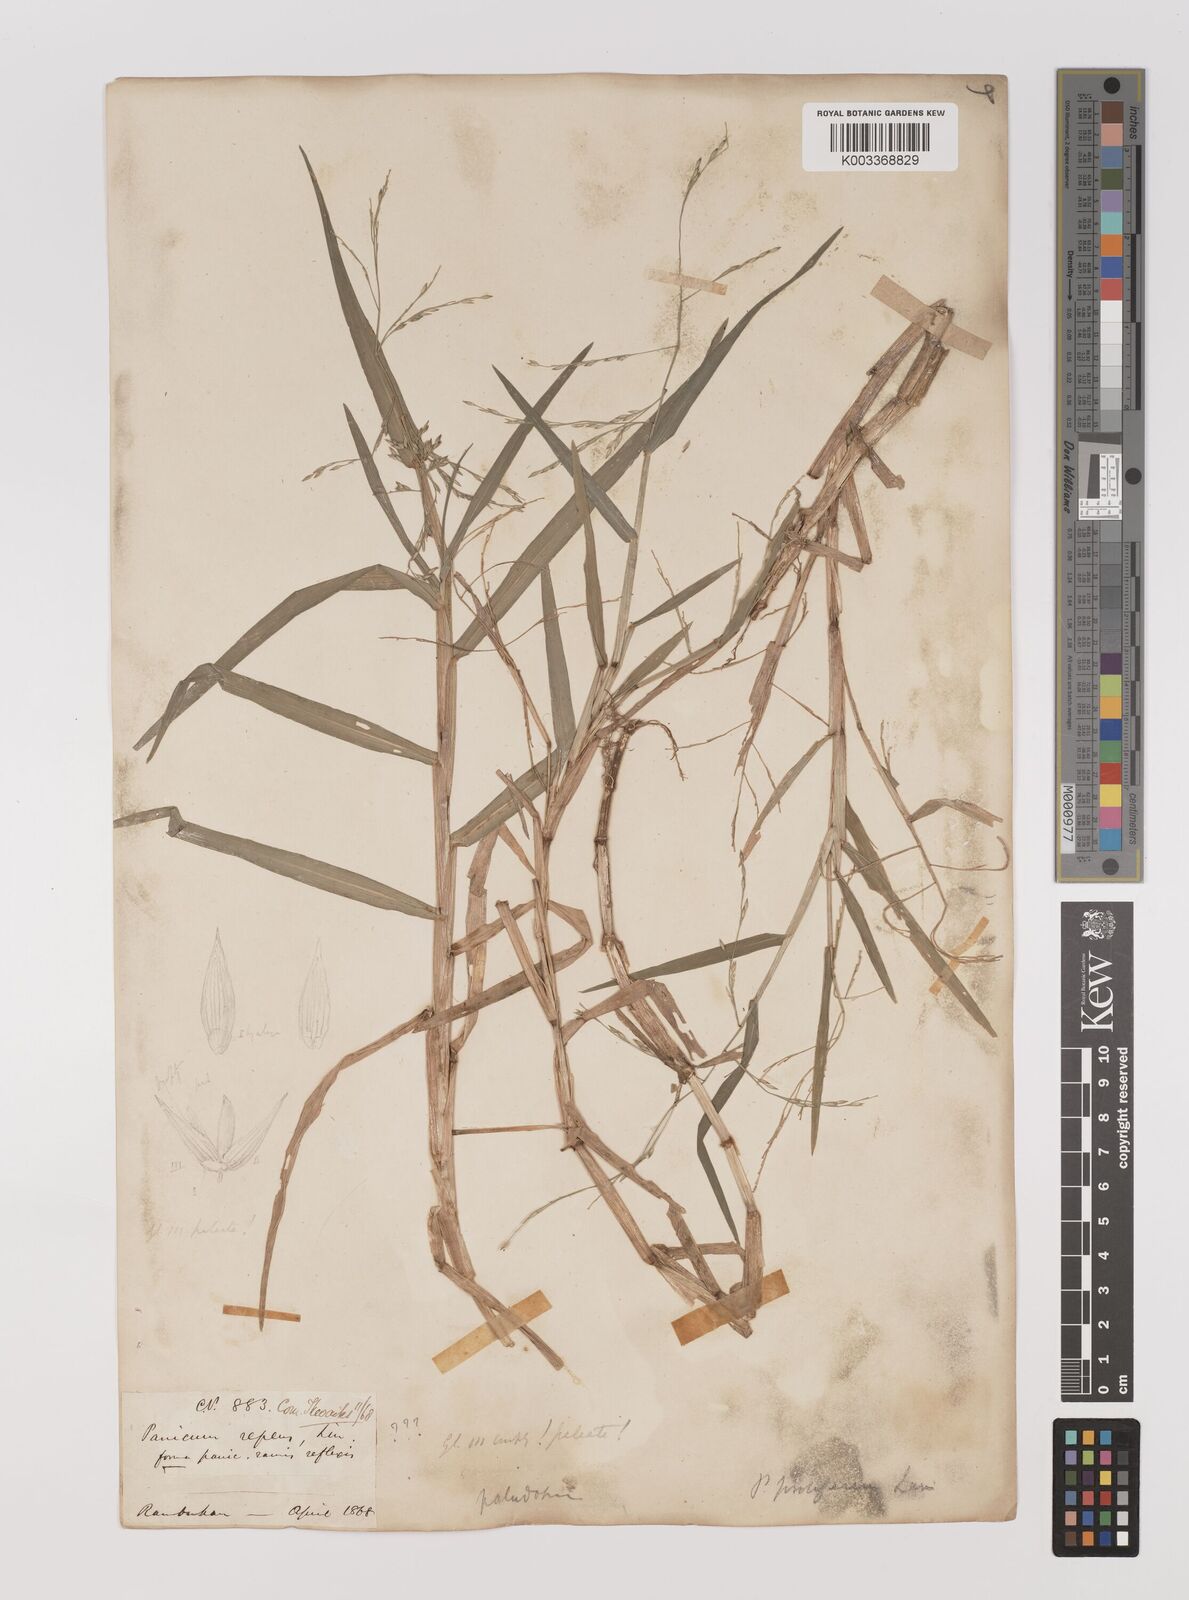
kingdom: Plantae
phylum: Tracheophyta
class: Liliopsida
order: Poales
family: Poaceae
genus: Louisiella
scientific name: Louisiella paludosa
